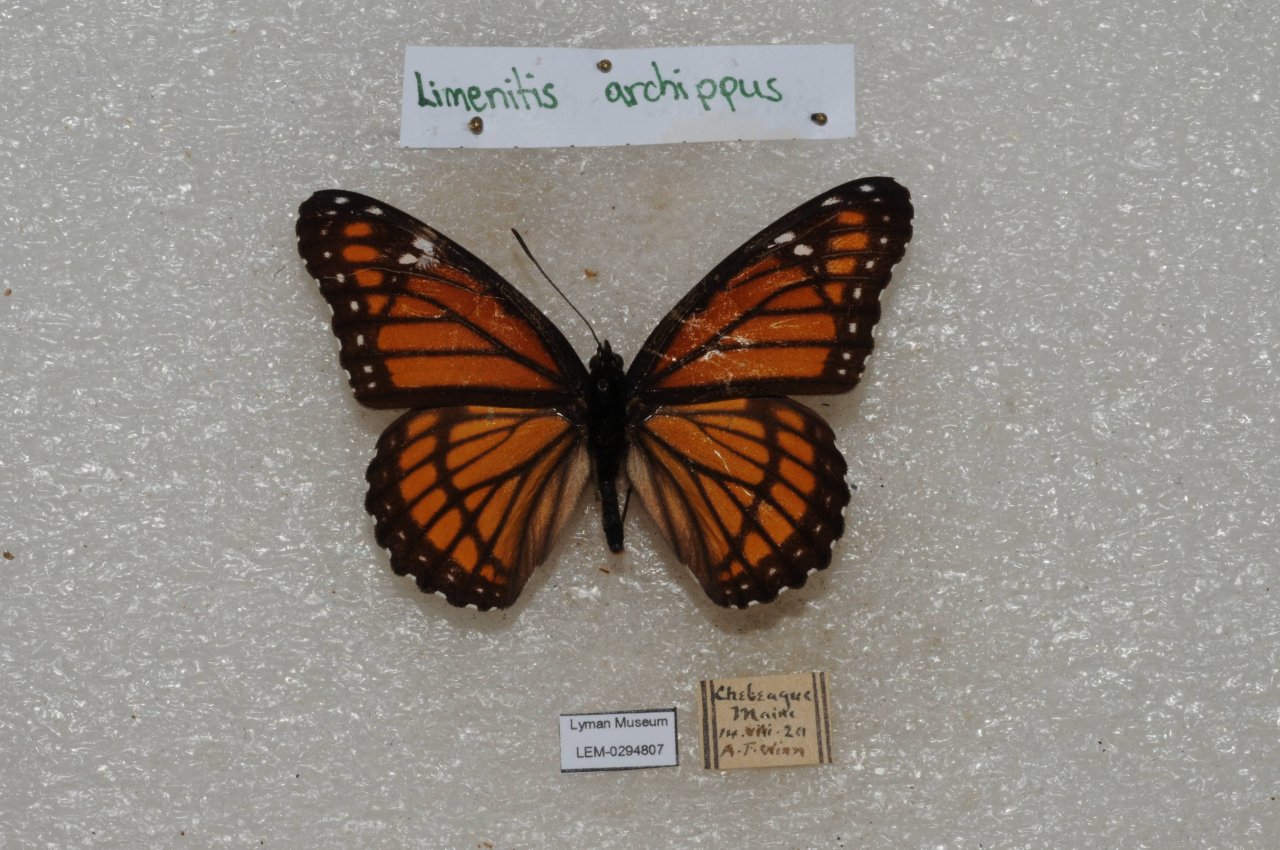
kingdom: Animalia
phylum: Arthropoda
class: Insecta
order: Lepidoptera
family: Nymphalidae
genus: Limenitis
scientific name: Limenitis archippus
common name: Viceroy
